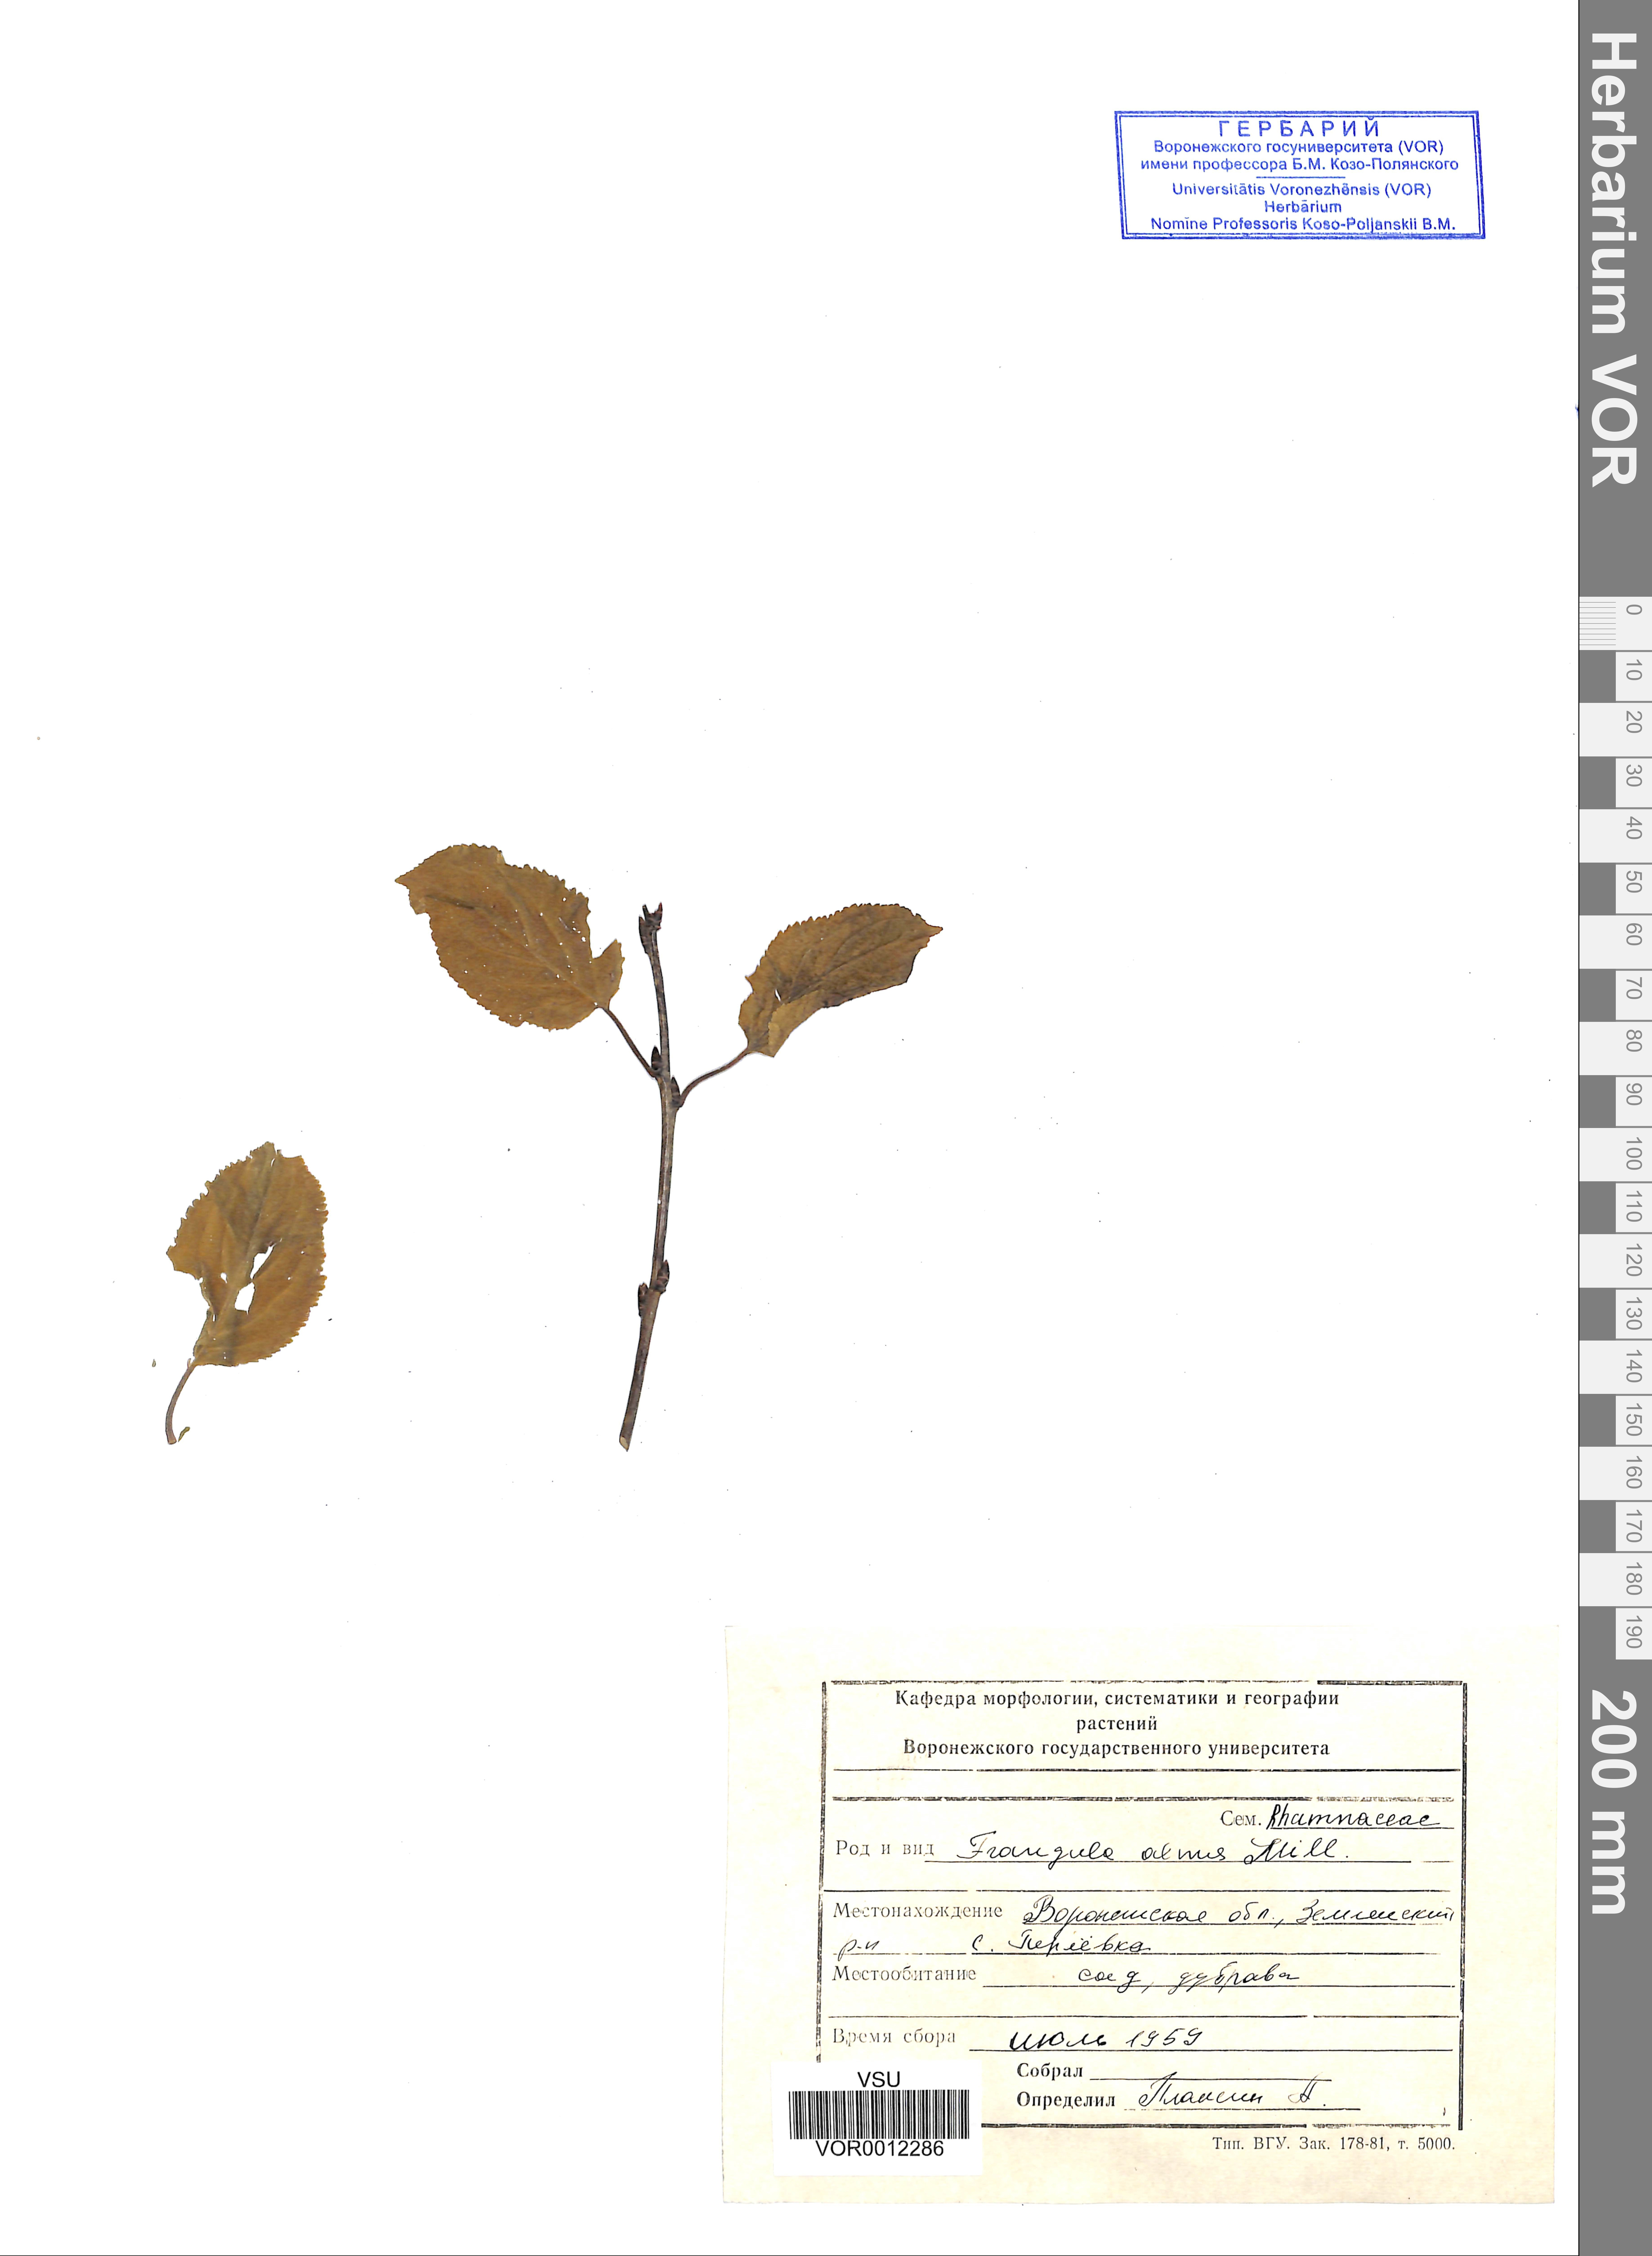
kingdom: Plantae
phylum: Tracheophyta
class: Magnoliopsida
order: Rosales
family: Rhamnaceae
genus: Frangula
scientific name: Frangula alnus
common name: Alder buckthorn
